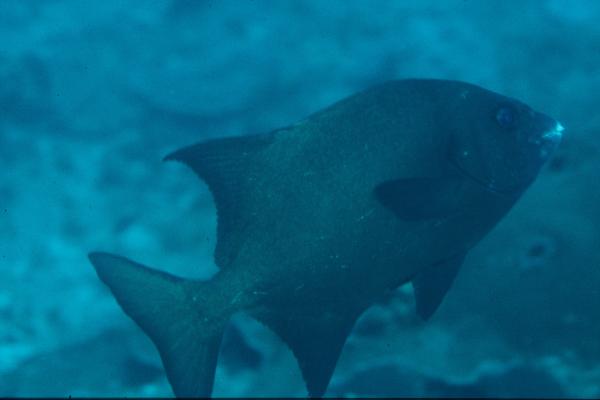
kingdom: Animalia
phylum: Chordata
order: Perciformes
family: Oplegnathidae
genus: Oplegnathus
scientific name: Oplegnathus robinsoni
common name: Natal knifejaw
